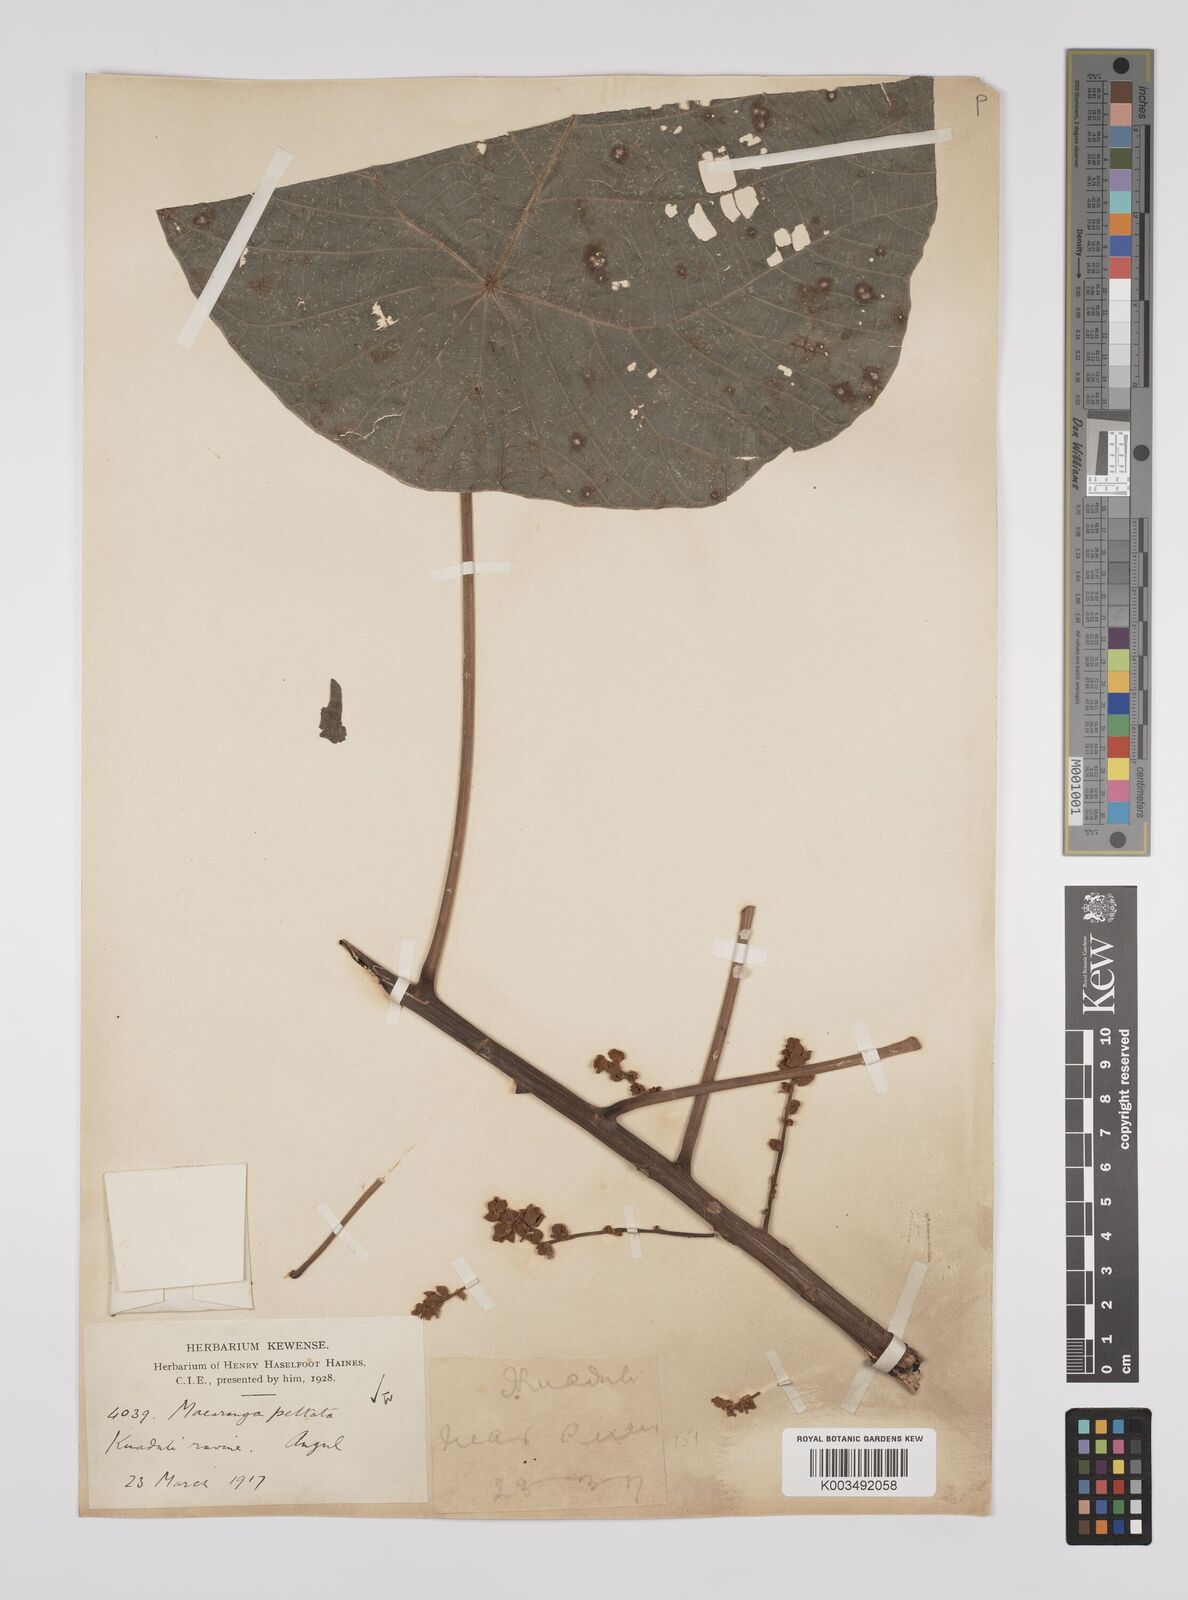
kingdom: Plantae
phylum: Tracheophyta
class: Magnoliopsida
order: Malpighiales
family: Euphorbiaceae
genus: Macaranga
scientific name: Macaranga peltata
